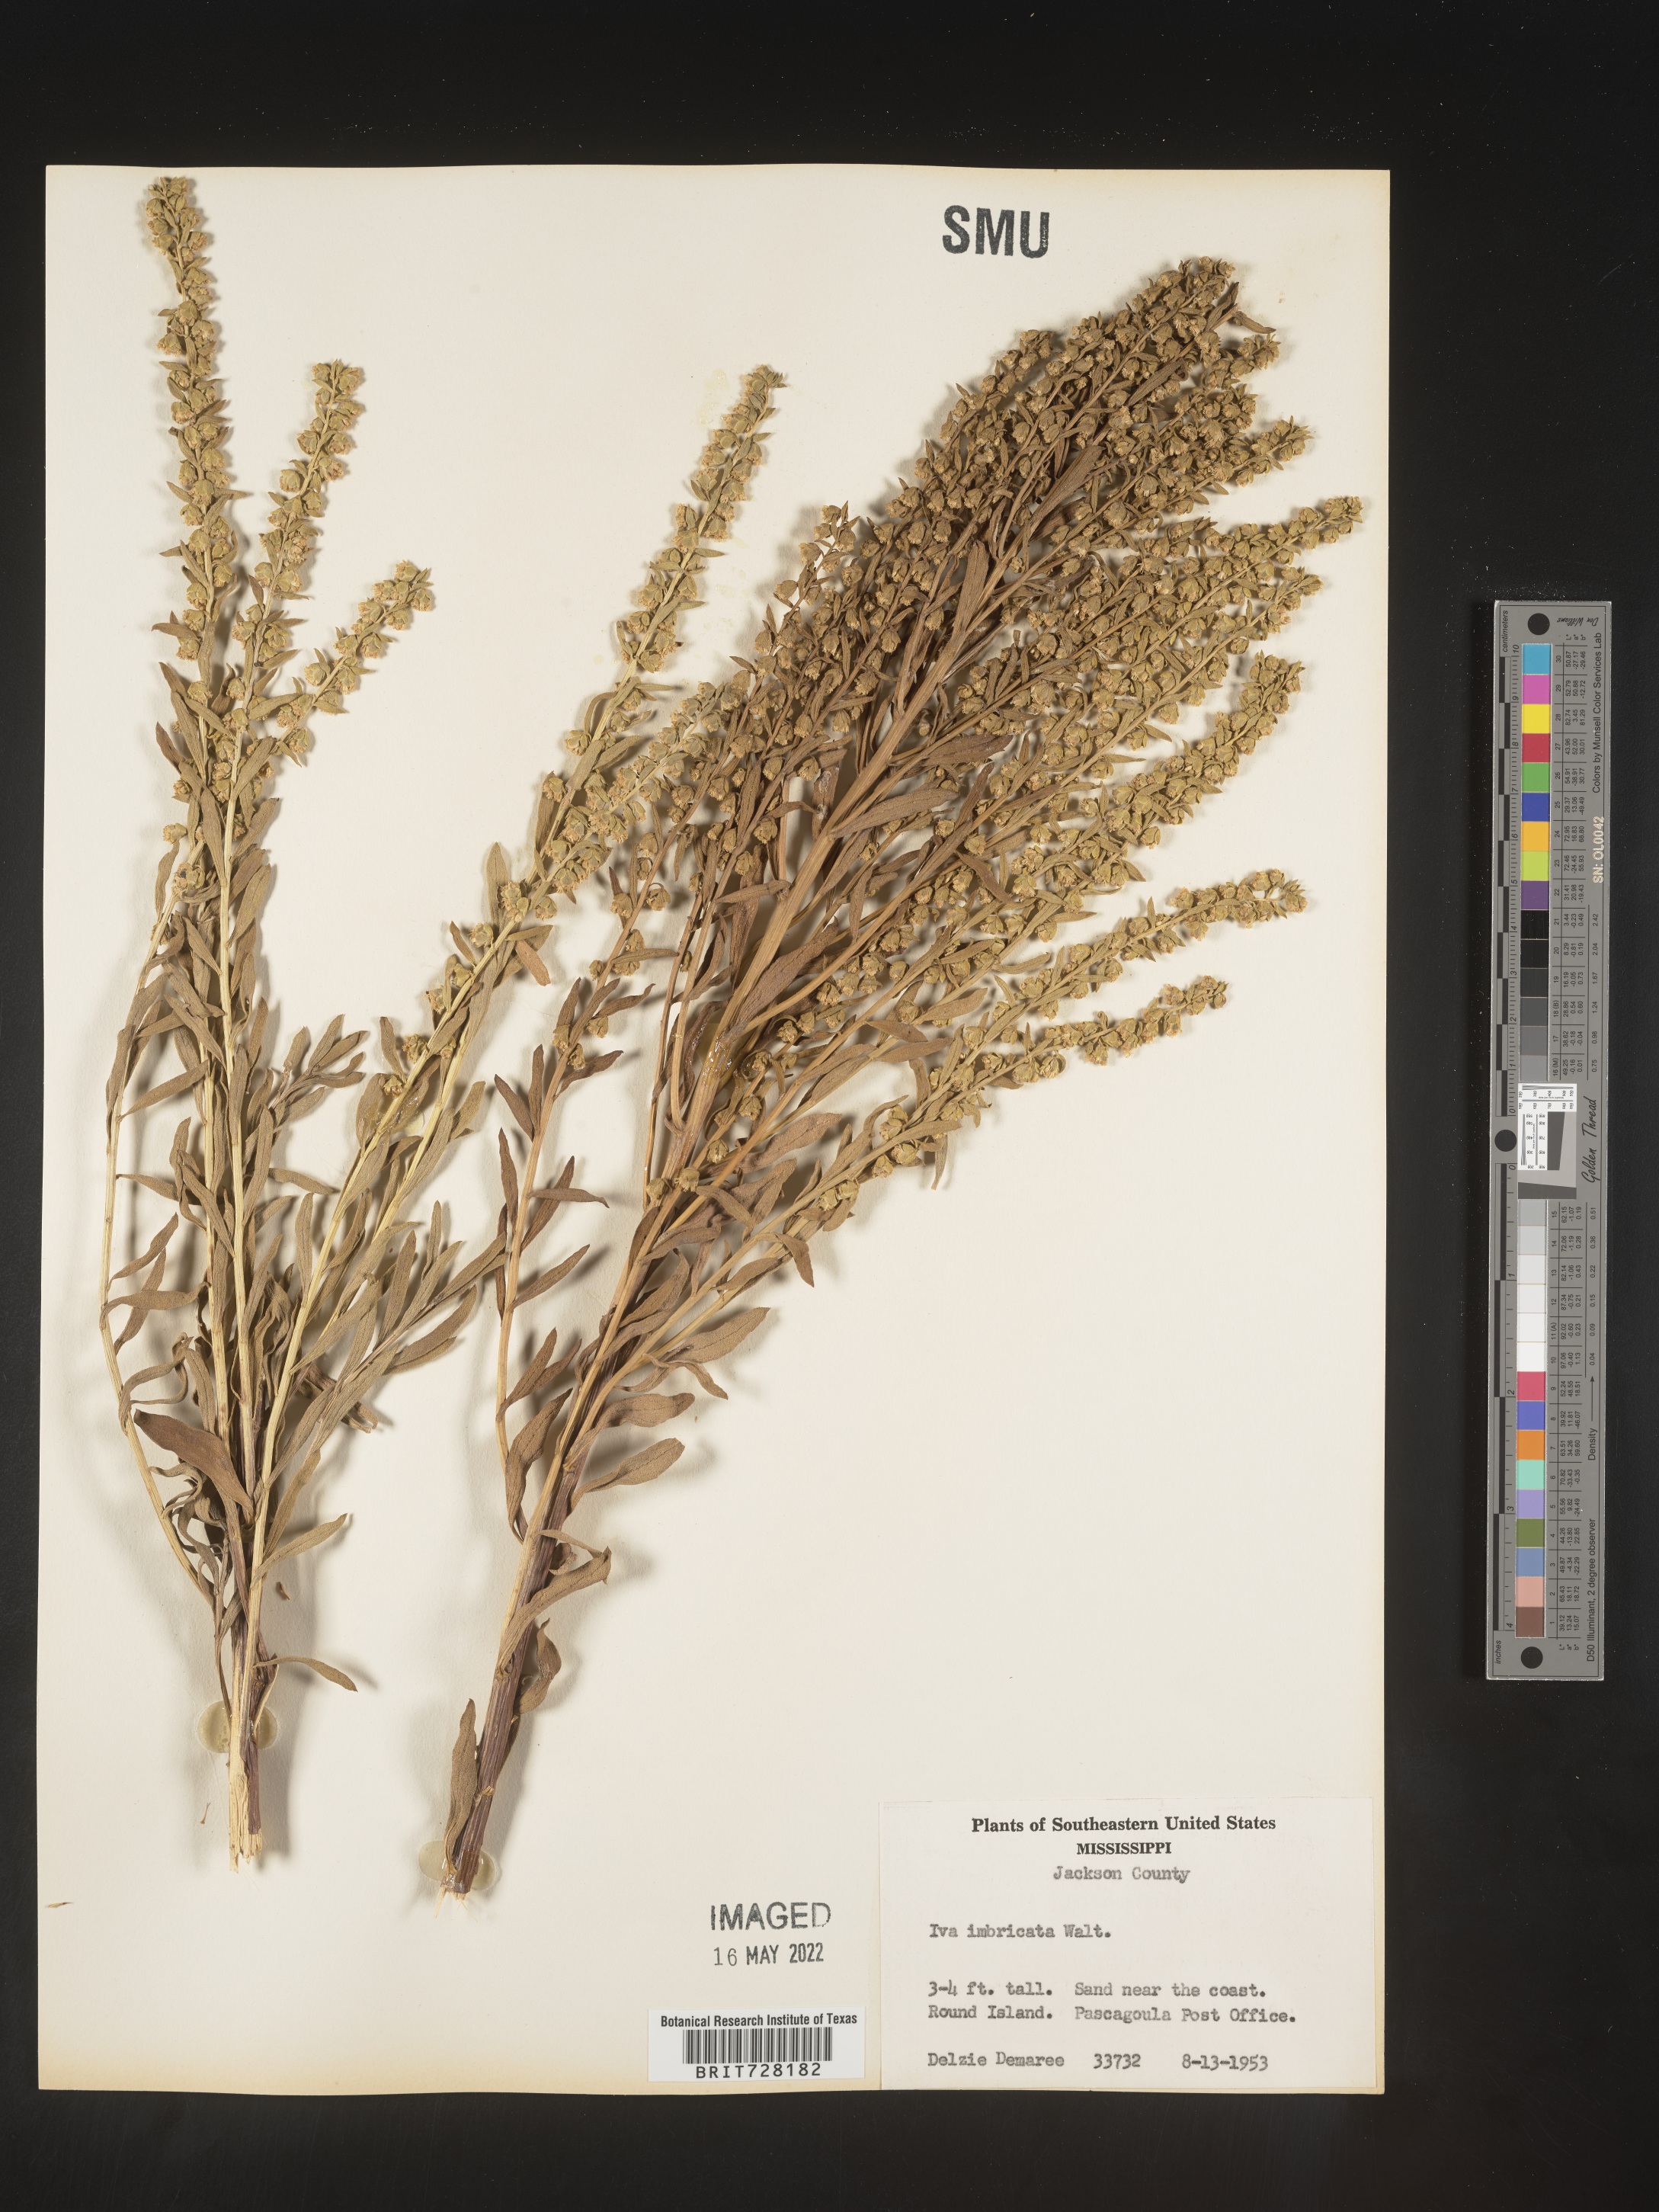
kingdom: Plantae
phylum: Tracheophyta
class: Magnoliopsida
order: Asterales
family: Asteraceae
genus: Iva
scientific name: Iva imbricata
